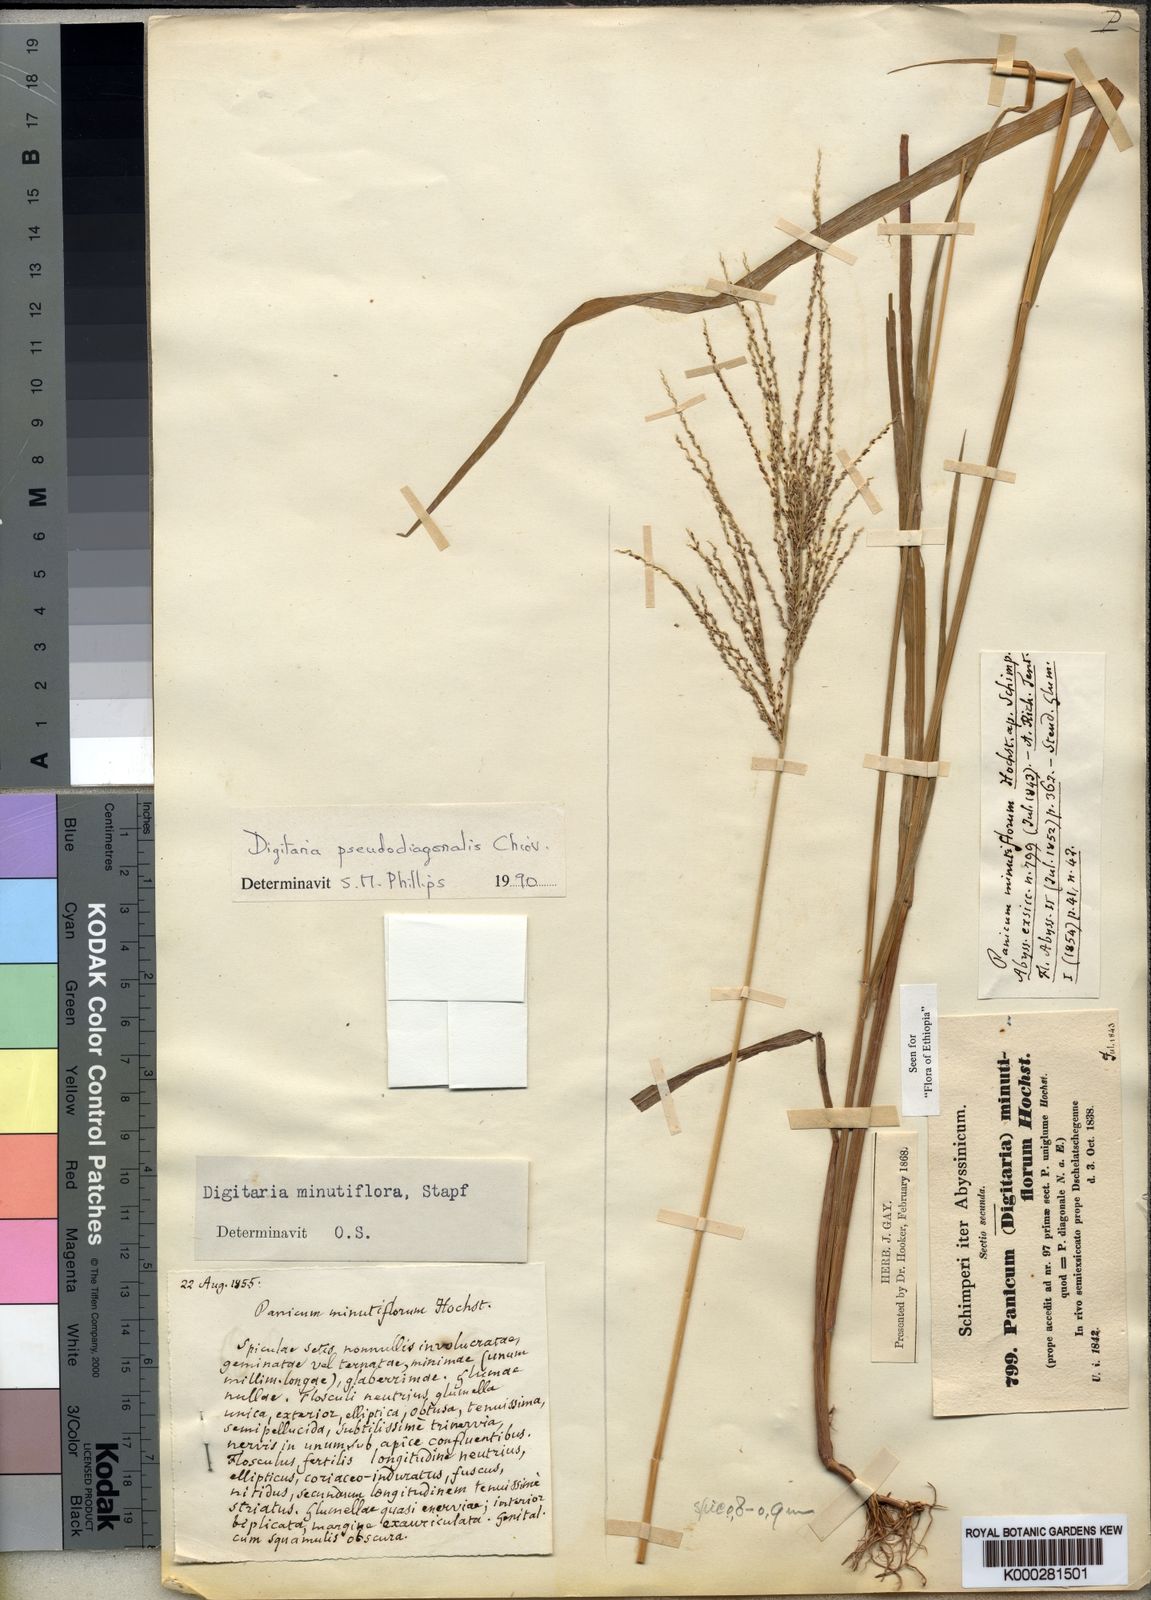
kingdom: Plantae
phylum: Tracheophyta
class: Liliopsida
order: Poales
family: Poaceae
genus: Digitaria
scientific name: Digitaria pseudodiagonalis
